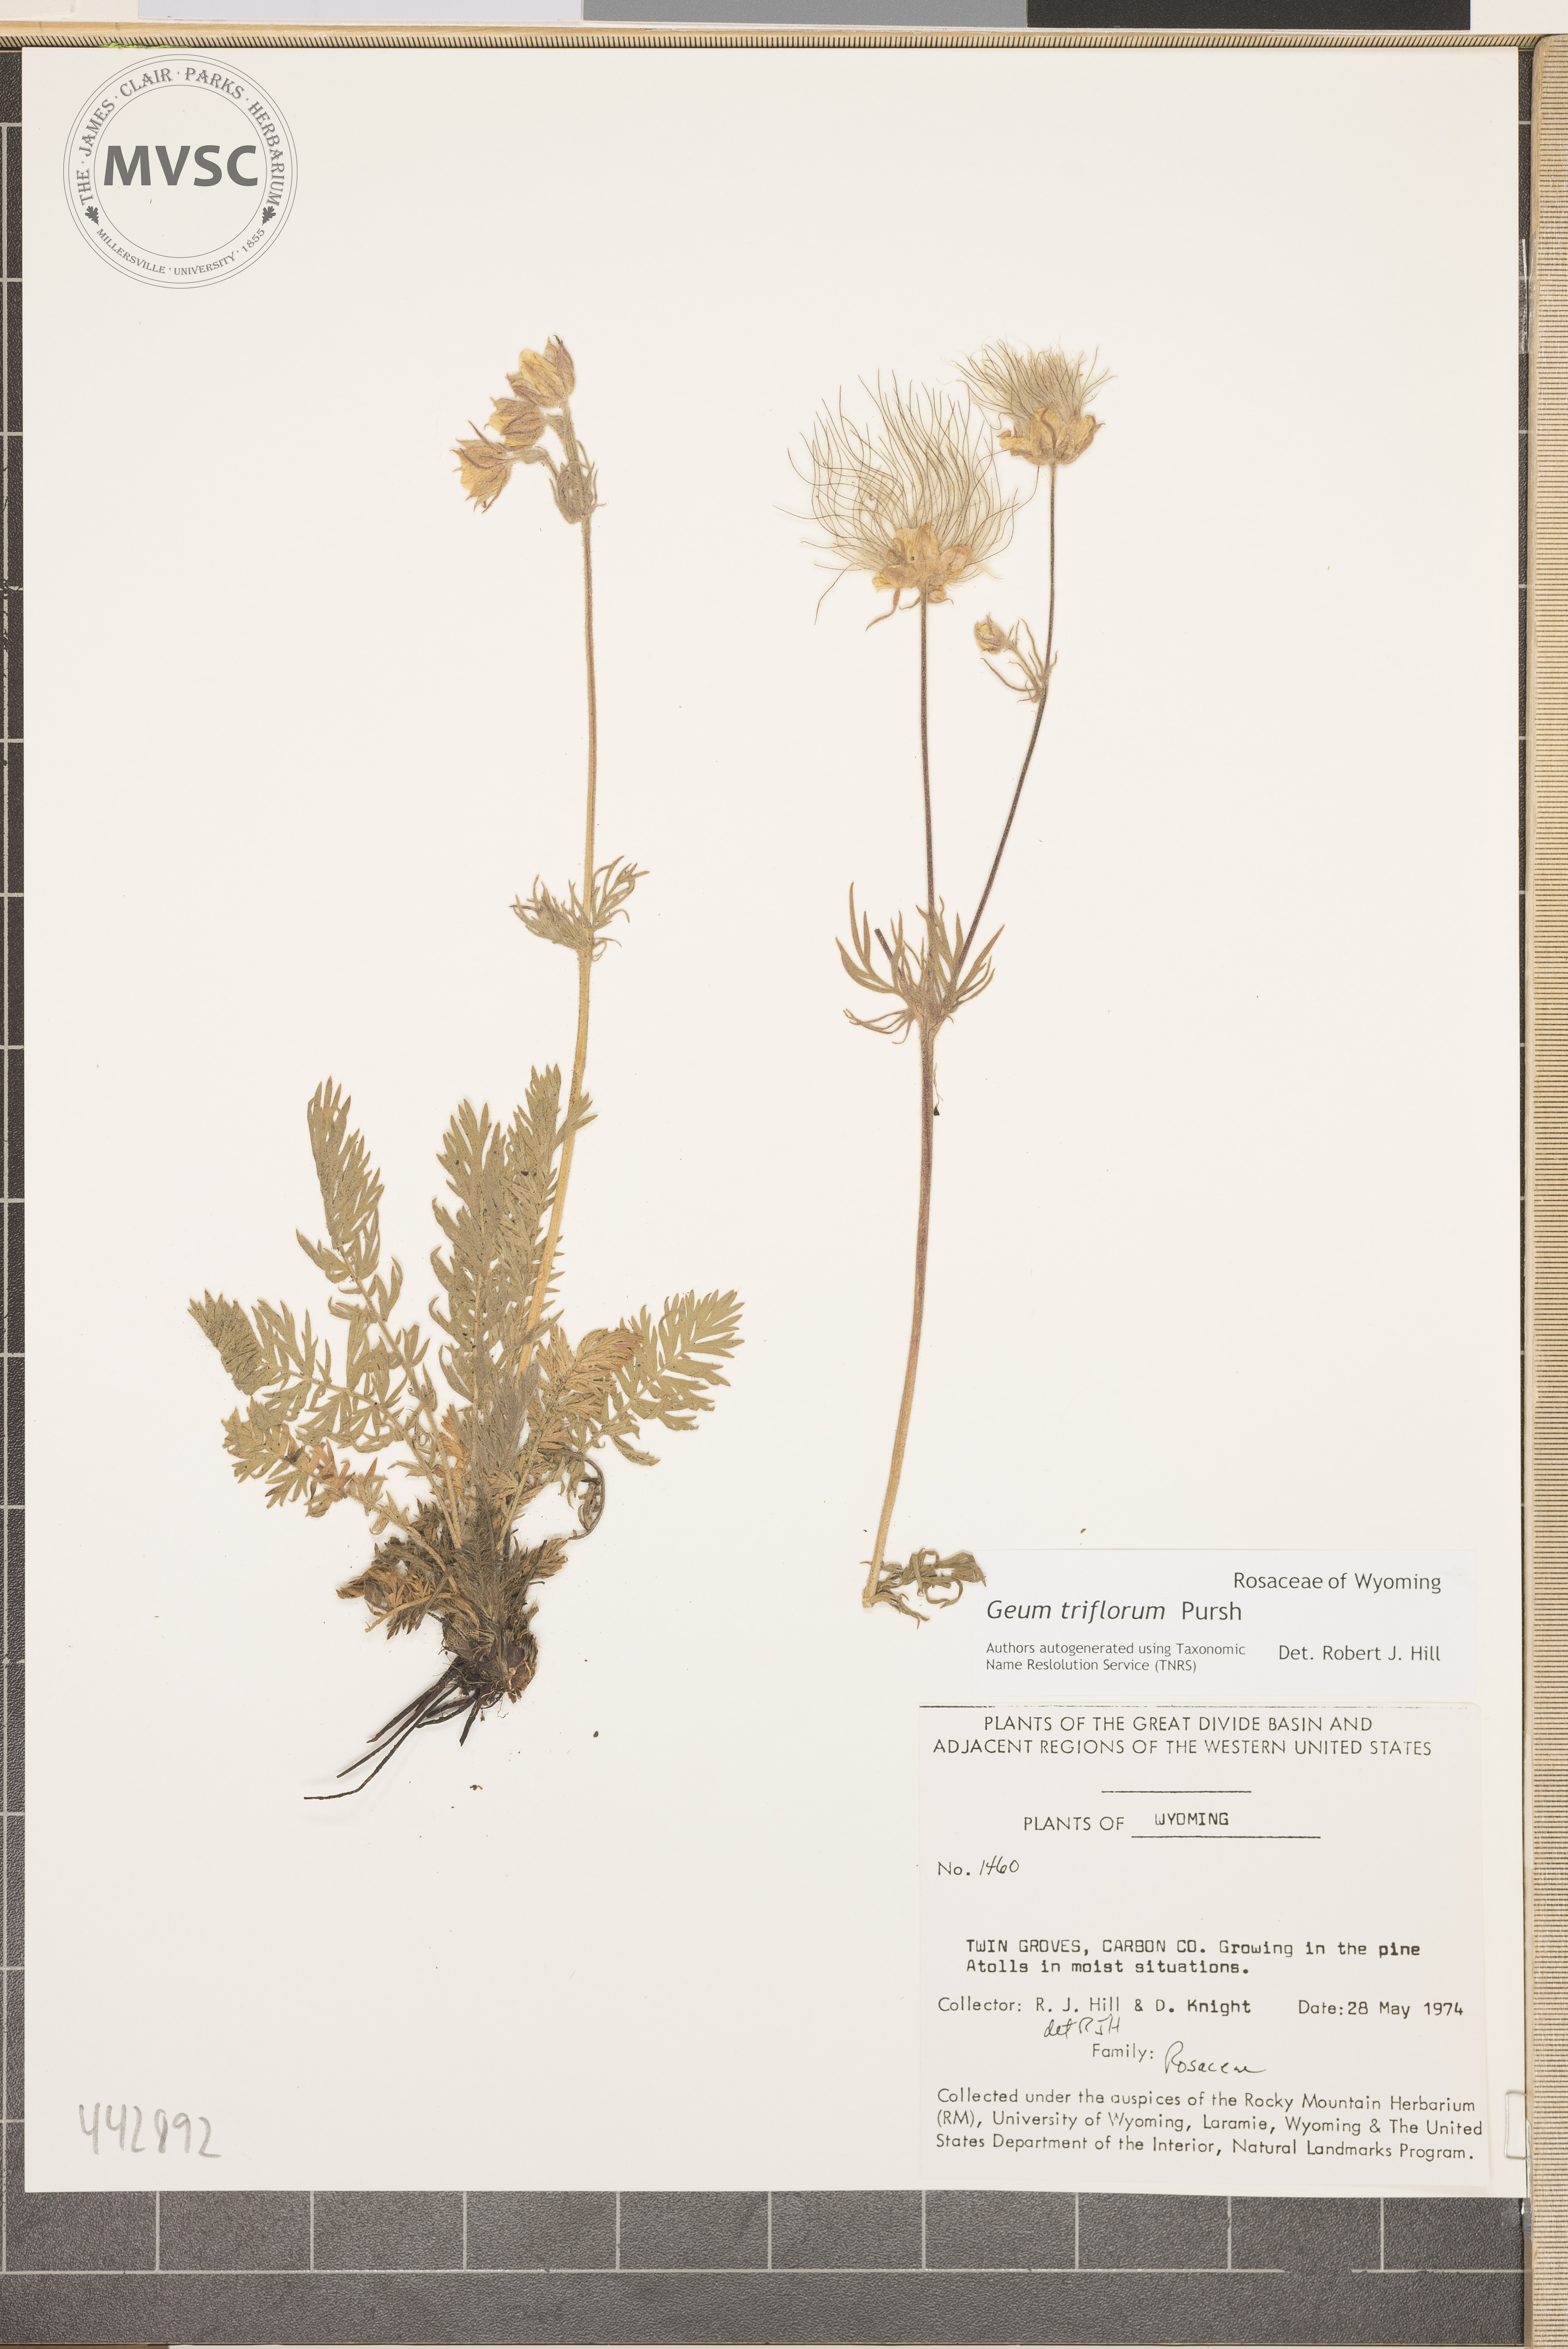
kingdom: Plantae
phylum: Tracheophyta
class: Magnoliopsida
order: Rosales
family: Rosaceae
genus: Geum
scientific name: Geum triflorum
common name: Old man's whiskers
